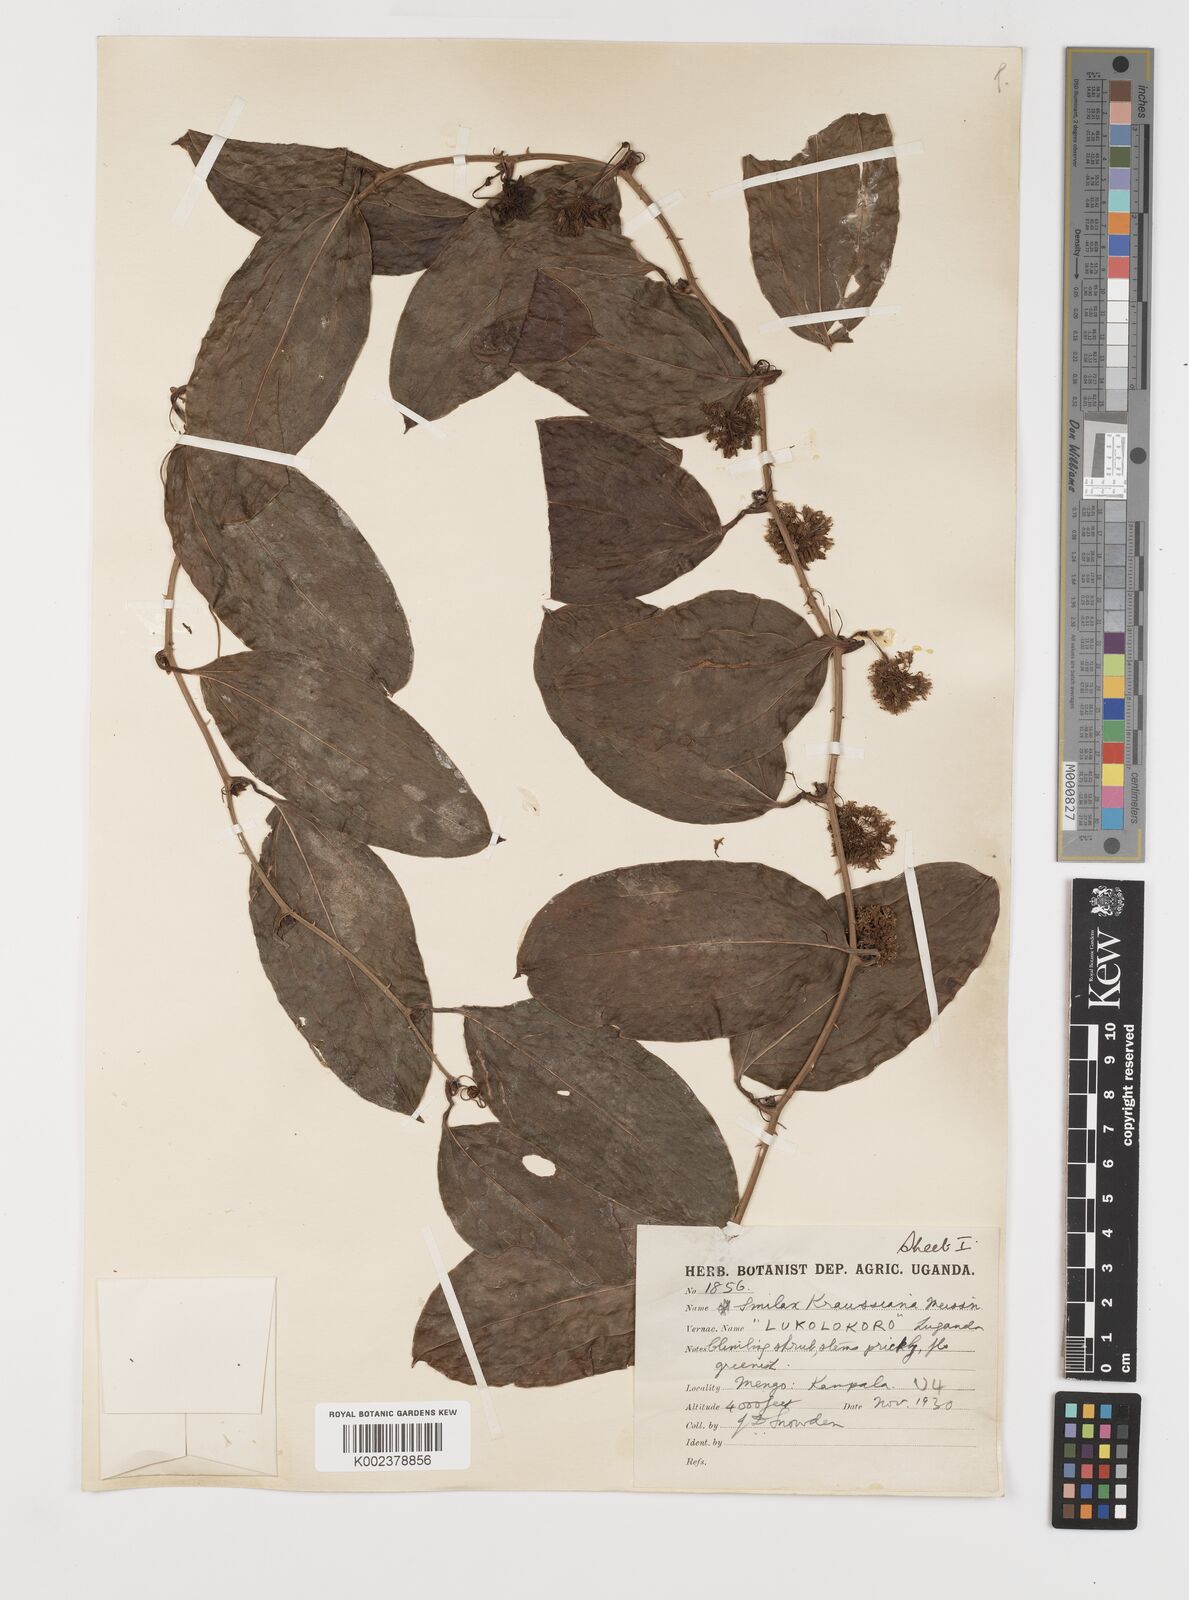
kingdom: Plantae
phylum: Tracheophyta
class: Liliopsida
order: Liliales
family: Smilacaceae
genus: Smilax
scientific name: Smilax anceps
